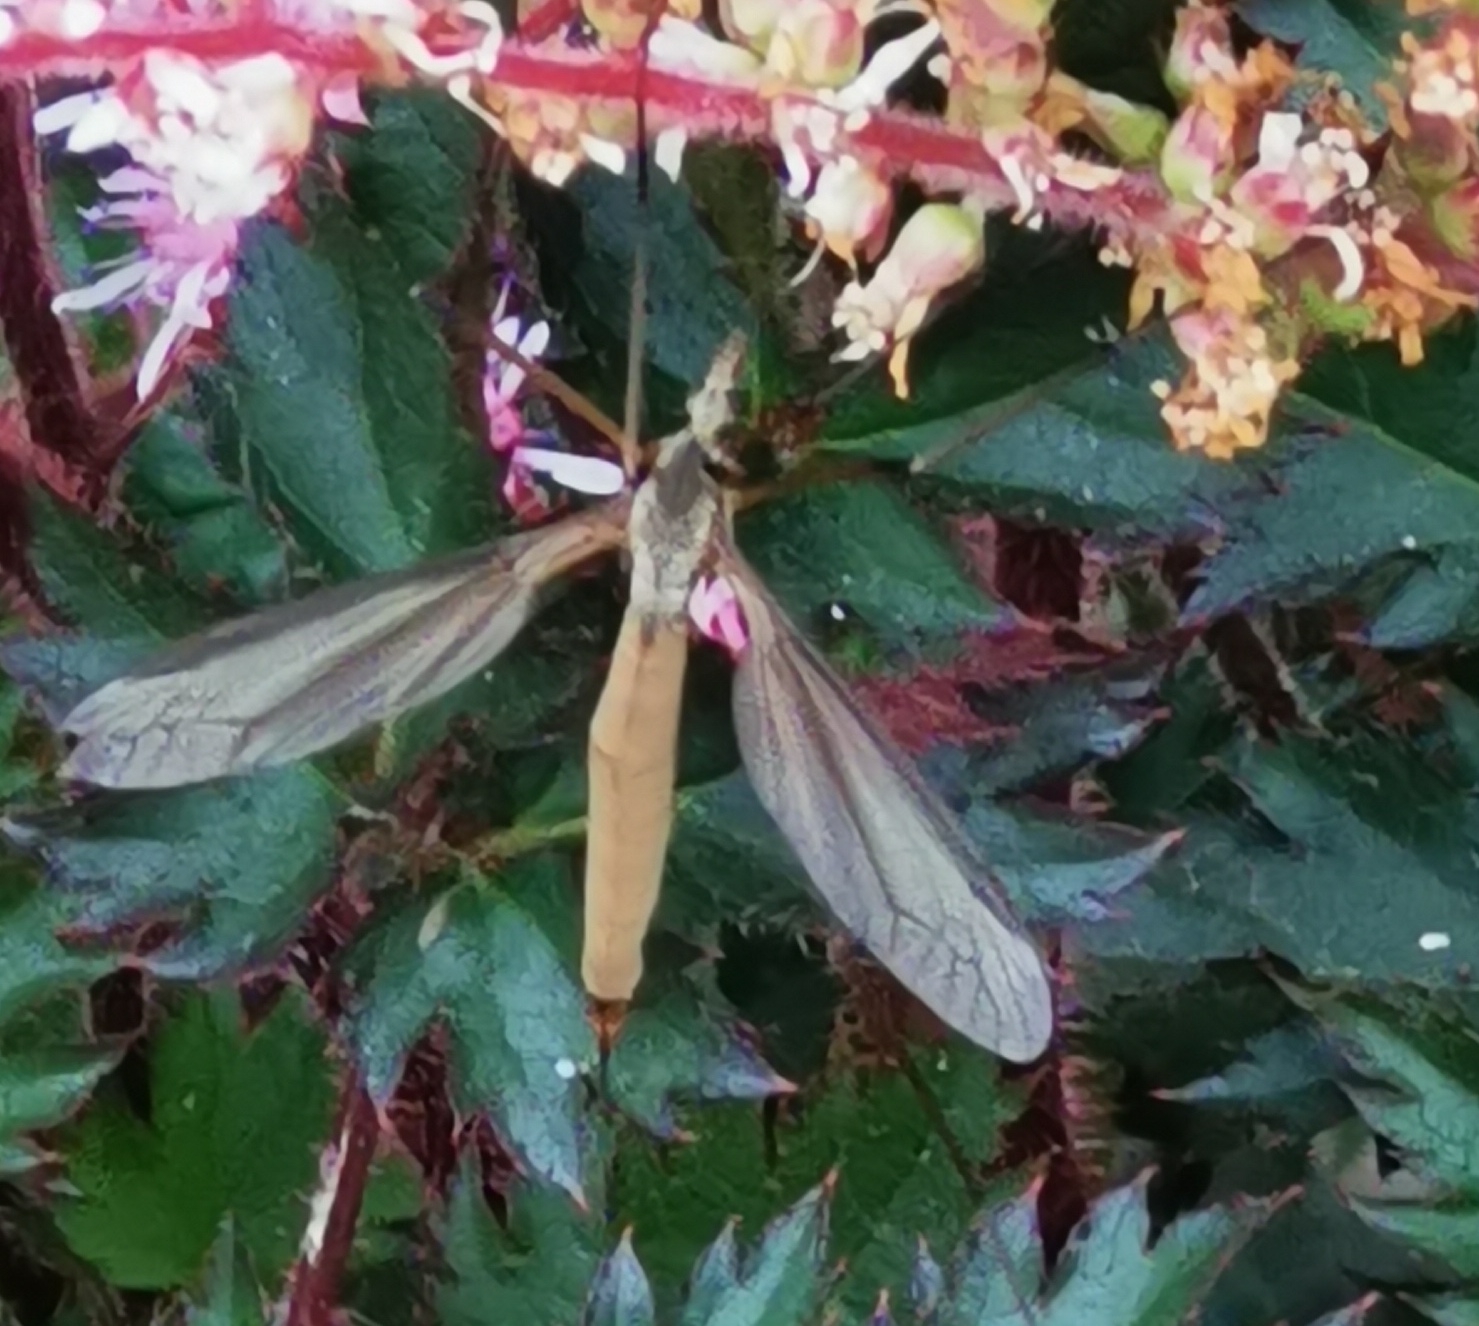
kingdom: Animalia
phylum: Arthropoda
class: Insecta
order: Diptera
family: Tipulidae
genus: Tipula
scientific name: Tipula paludosa
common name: Mosestankelben
